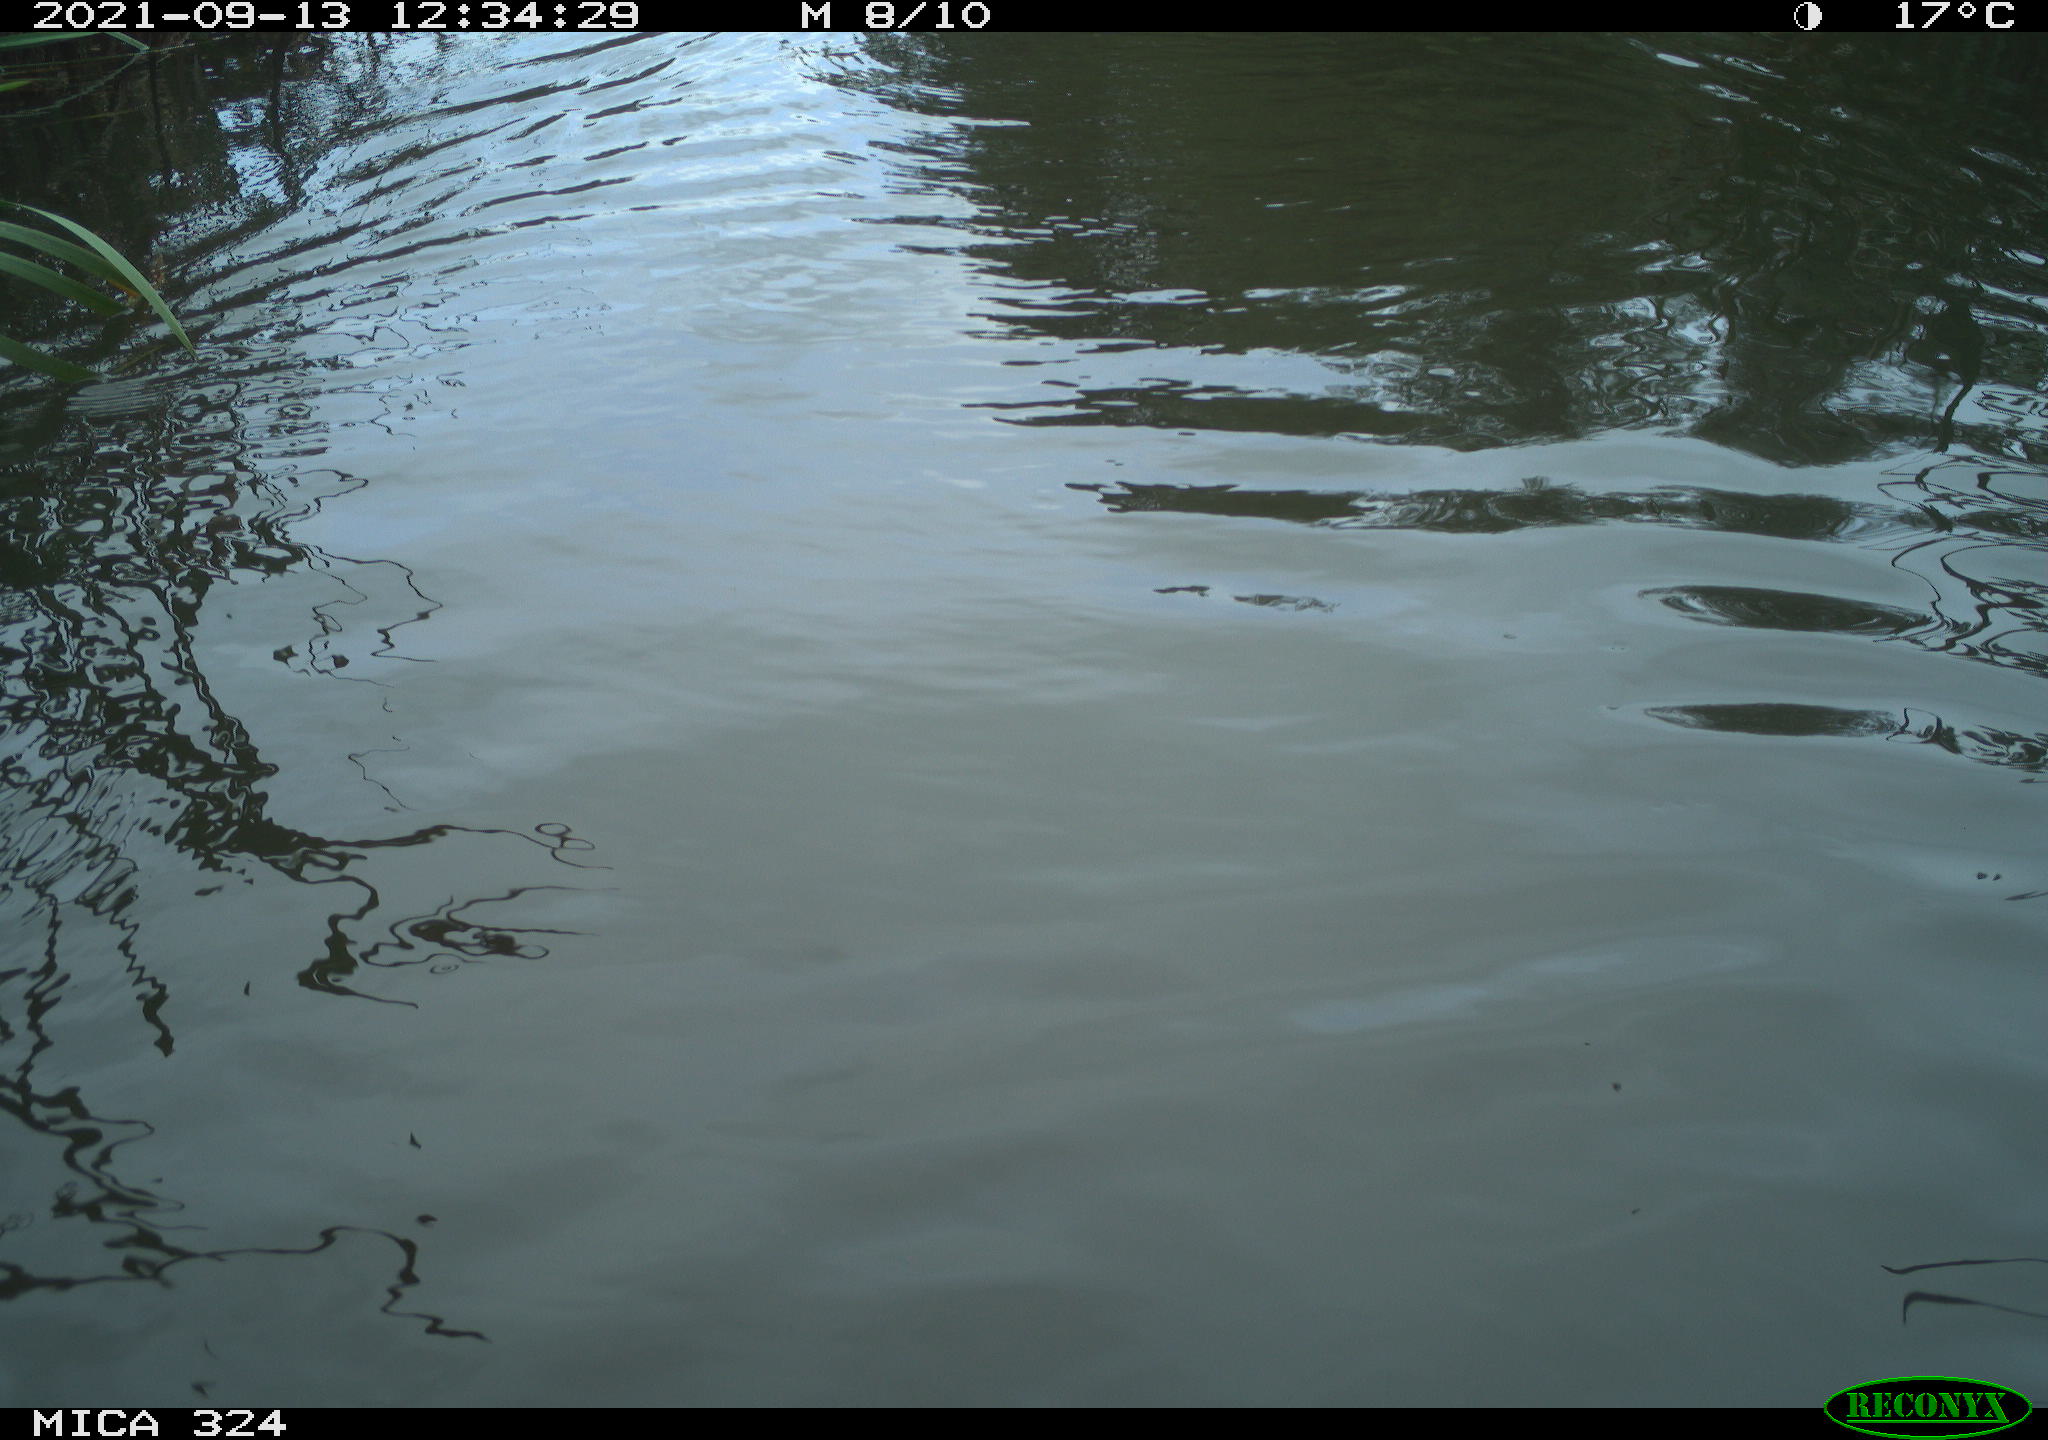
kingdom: Animalia
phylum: Chordata
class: Mammalia
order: Rodentia
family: Cricetidae
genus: Ondatra
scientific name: Ondatra zibethicus
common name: Muskrat
